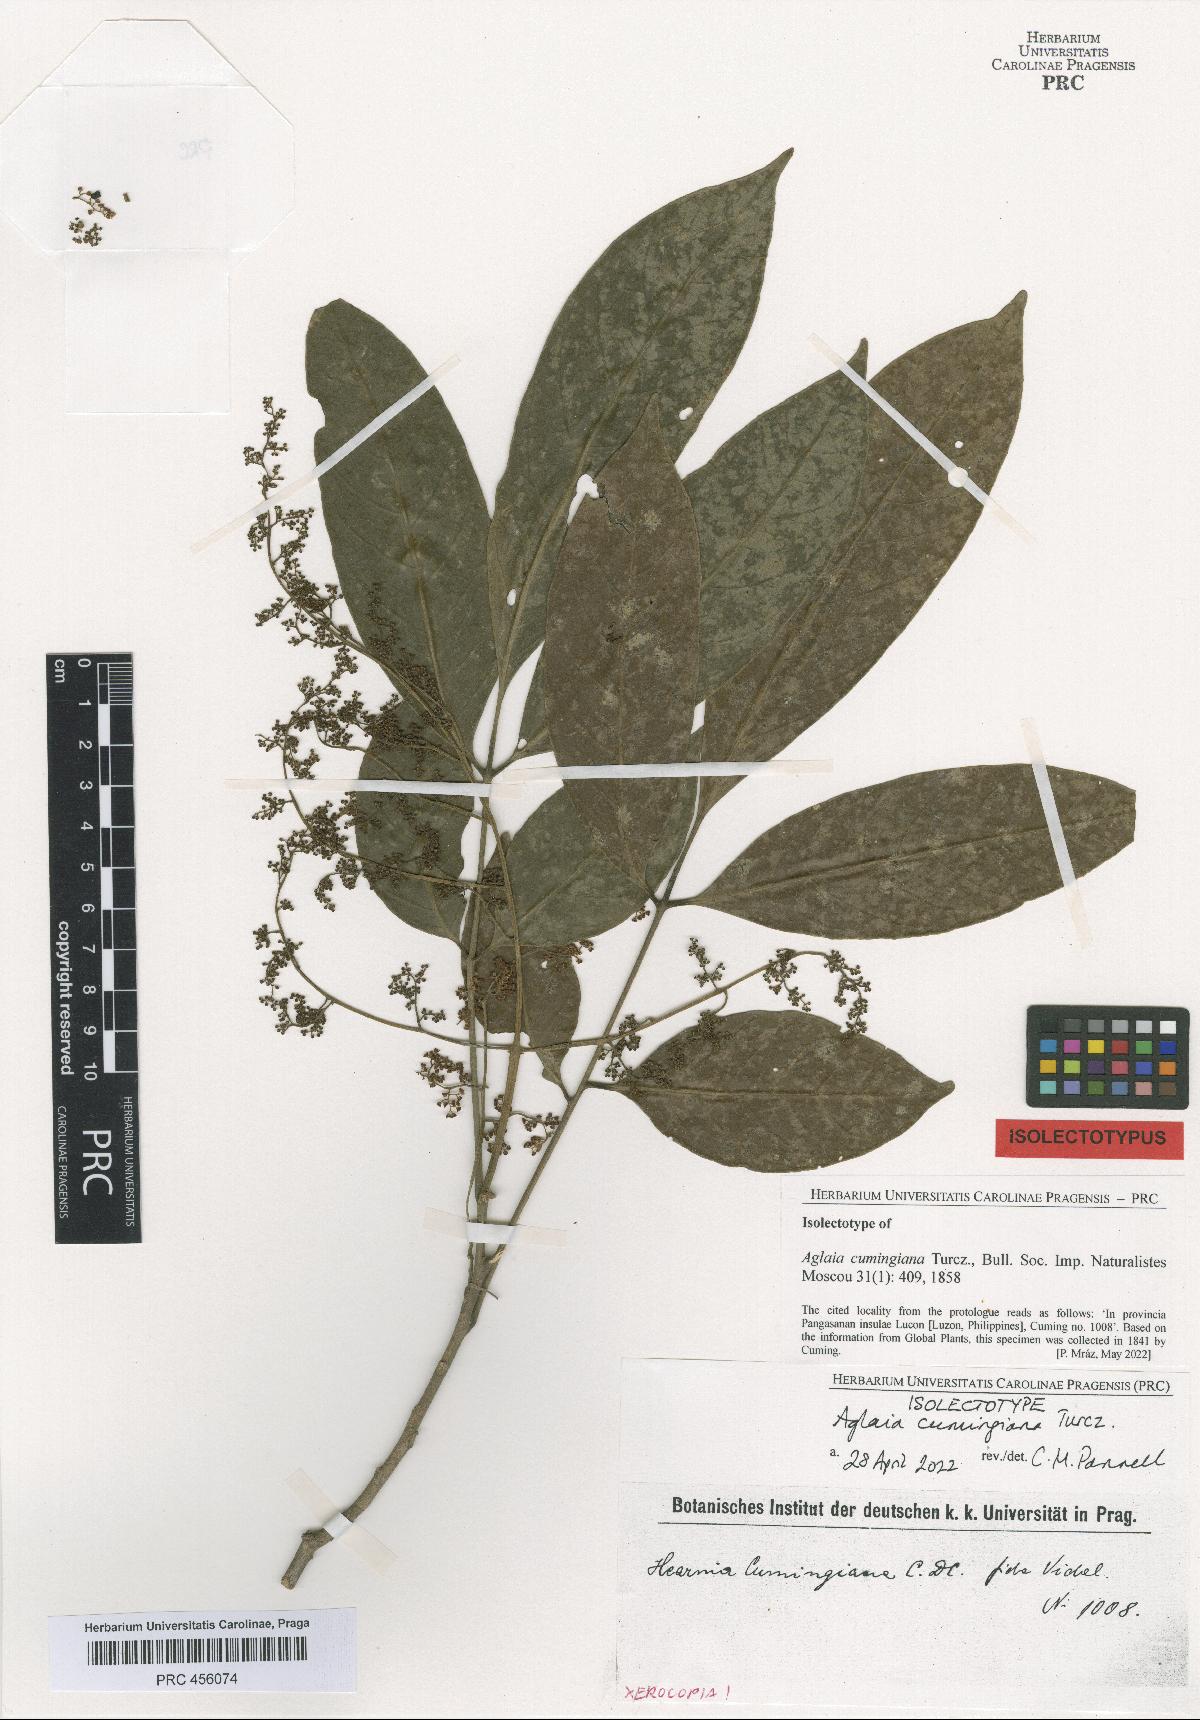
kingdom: Plantae
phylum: Tracheophyta
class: Magnoliopsida
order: Sapindales
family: Meliaceae
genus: Aglaia
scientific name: Aglaia cumingiana
